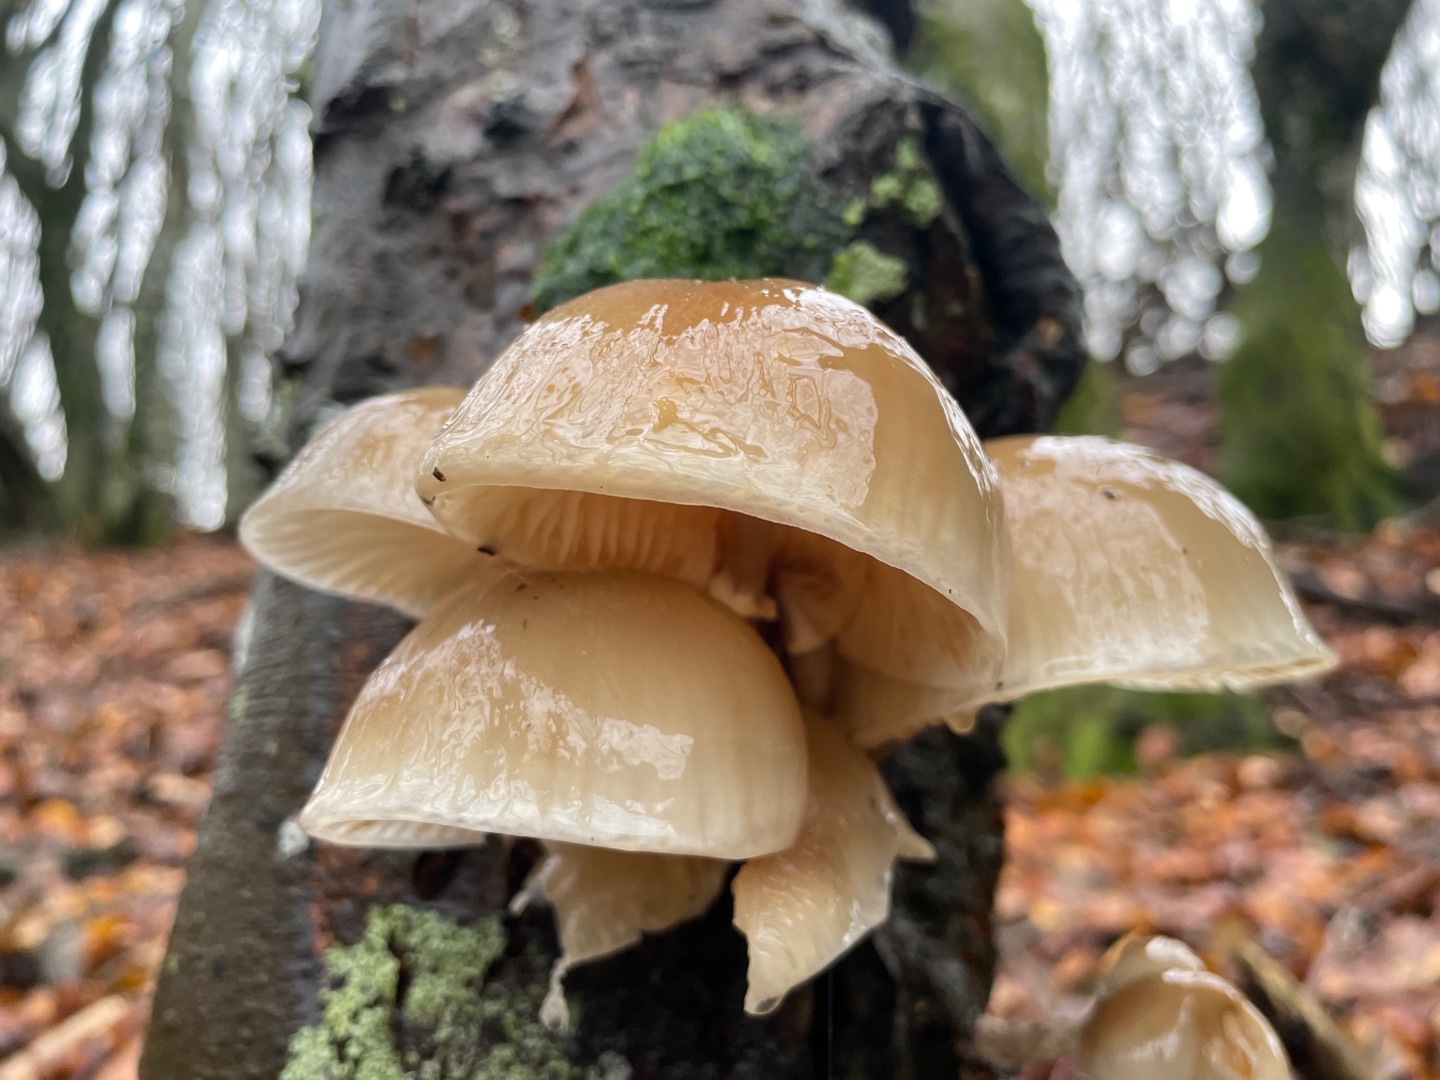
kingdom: Fungi
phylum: Basidiomycota
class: Agaricomycetes
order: Agaricales
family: Physalacriaceae
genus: Mucidula
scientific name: Mucidula mucida
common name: Porcelænshat
